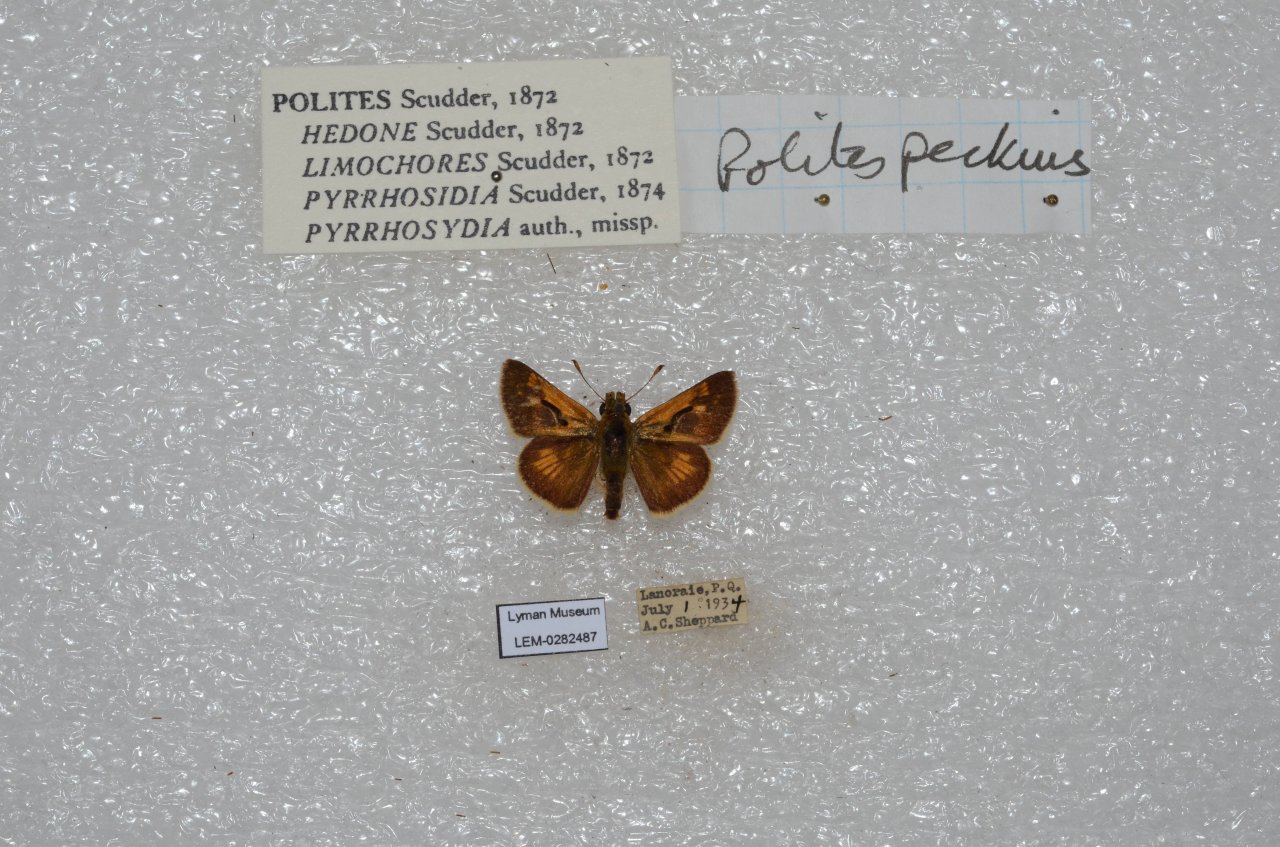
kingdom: Animalia
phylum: Arthropoda
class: Insecta
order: Lepidoptera
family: Hesperiidae
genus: Polites
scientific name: Polites coras
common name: Peck's Skipper
